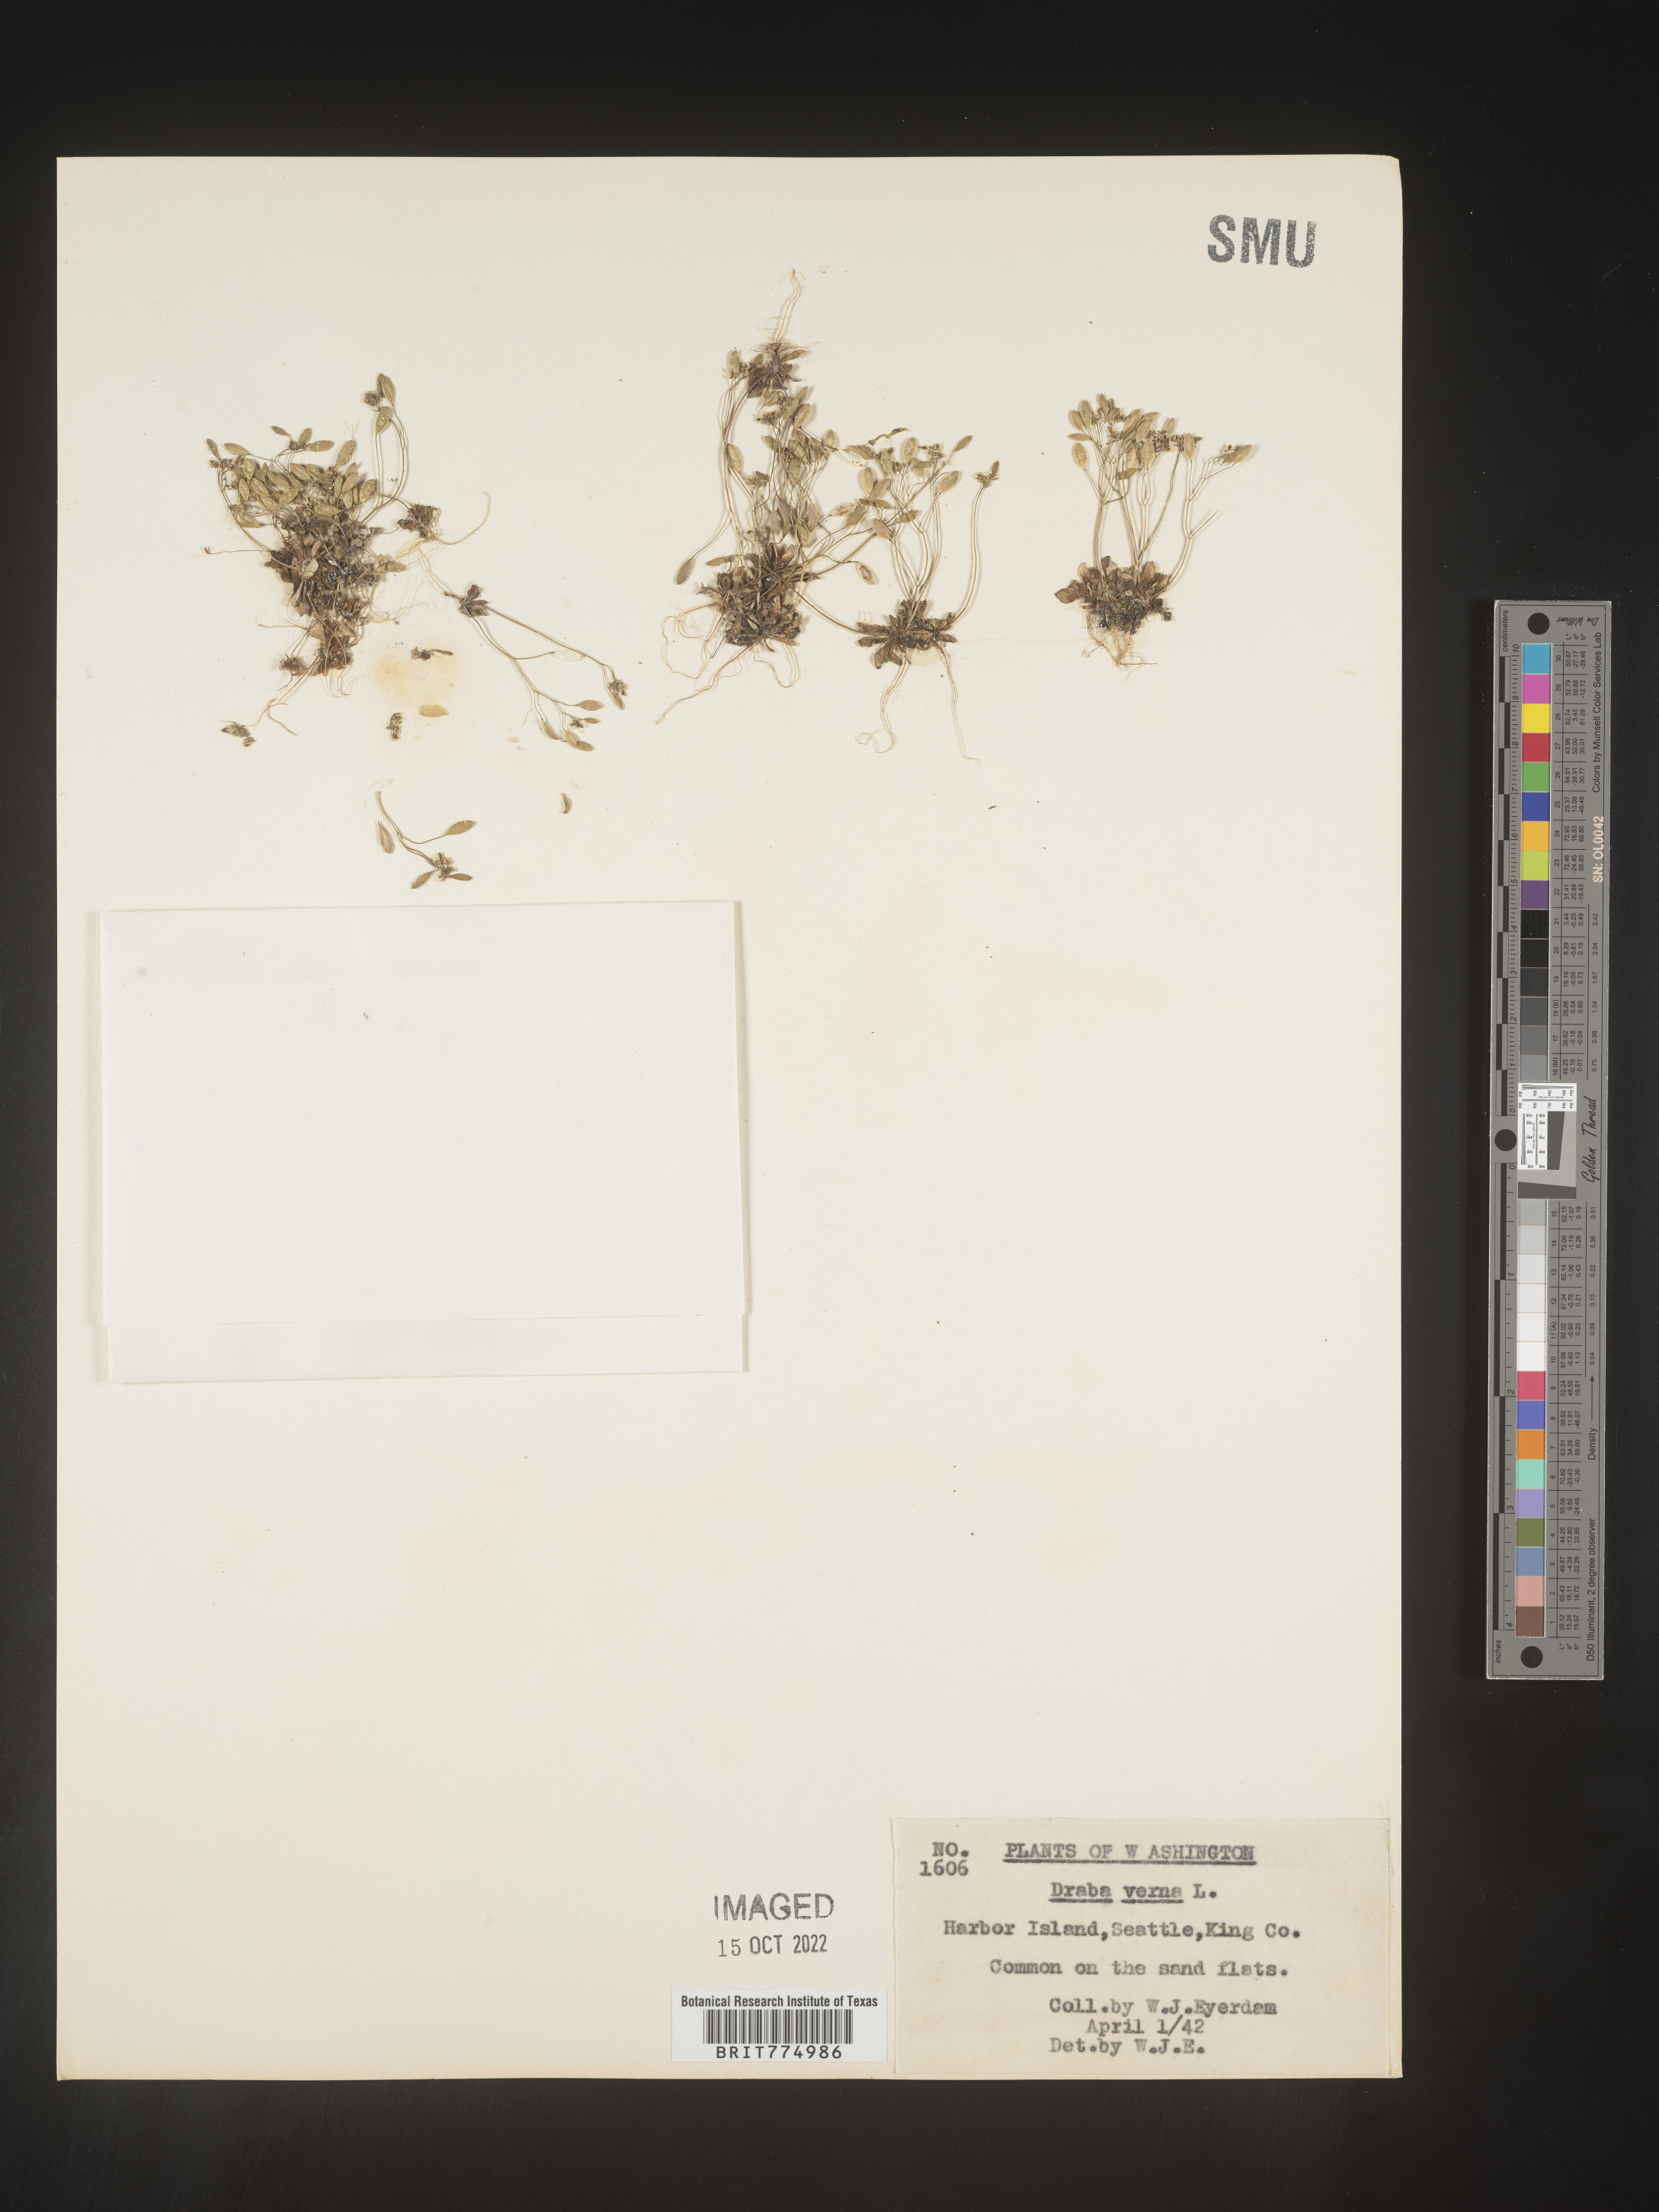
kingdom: Plantae
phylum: Tracheophyta
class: Magnoliopsida
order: Brassicales
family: Brassicaceae
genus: Draba
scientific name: Draba verna
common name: Spring draba
